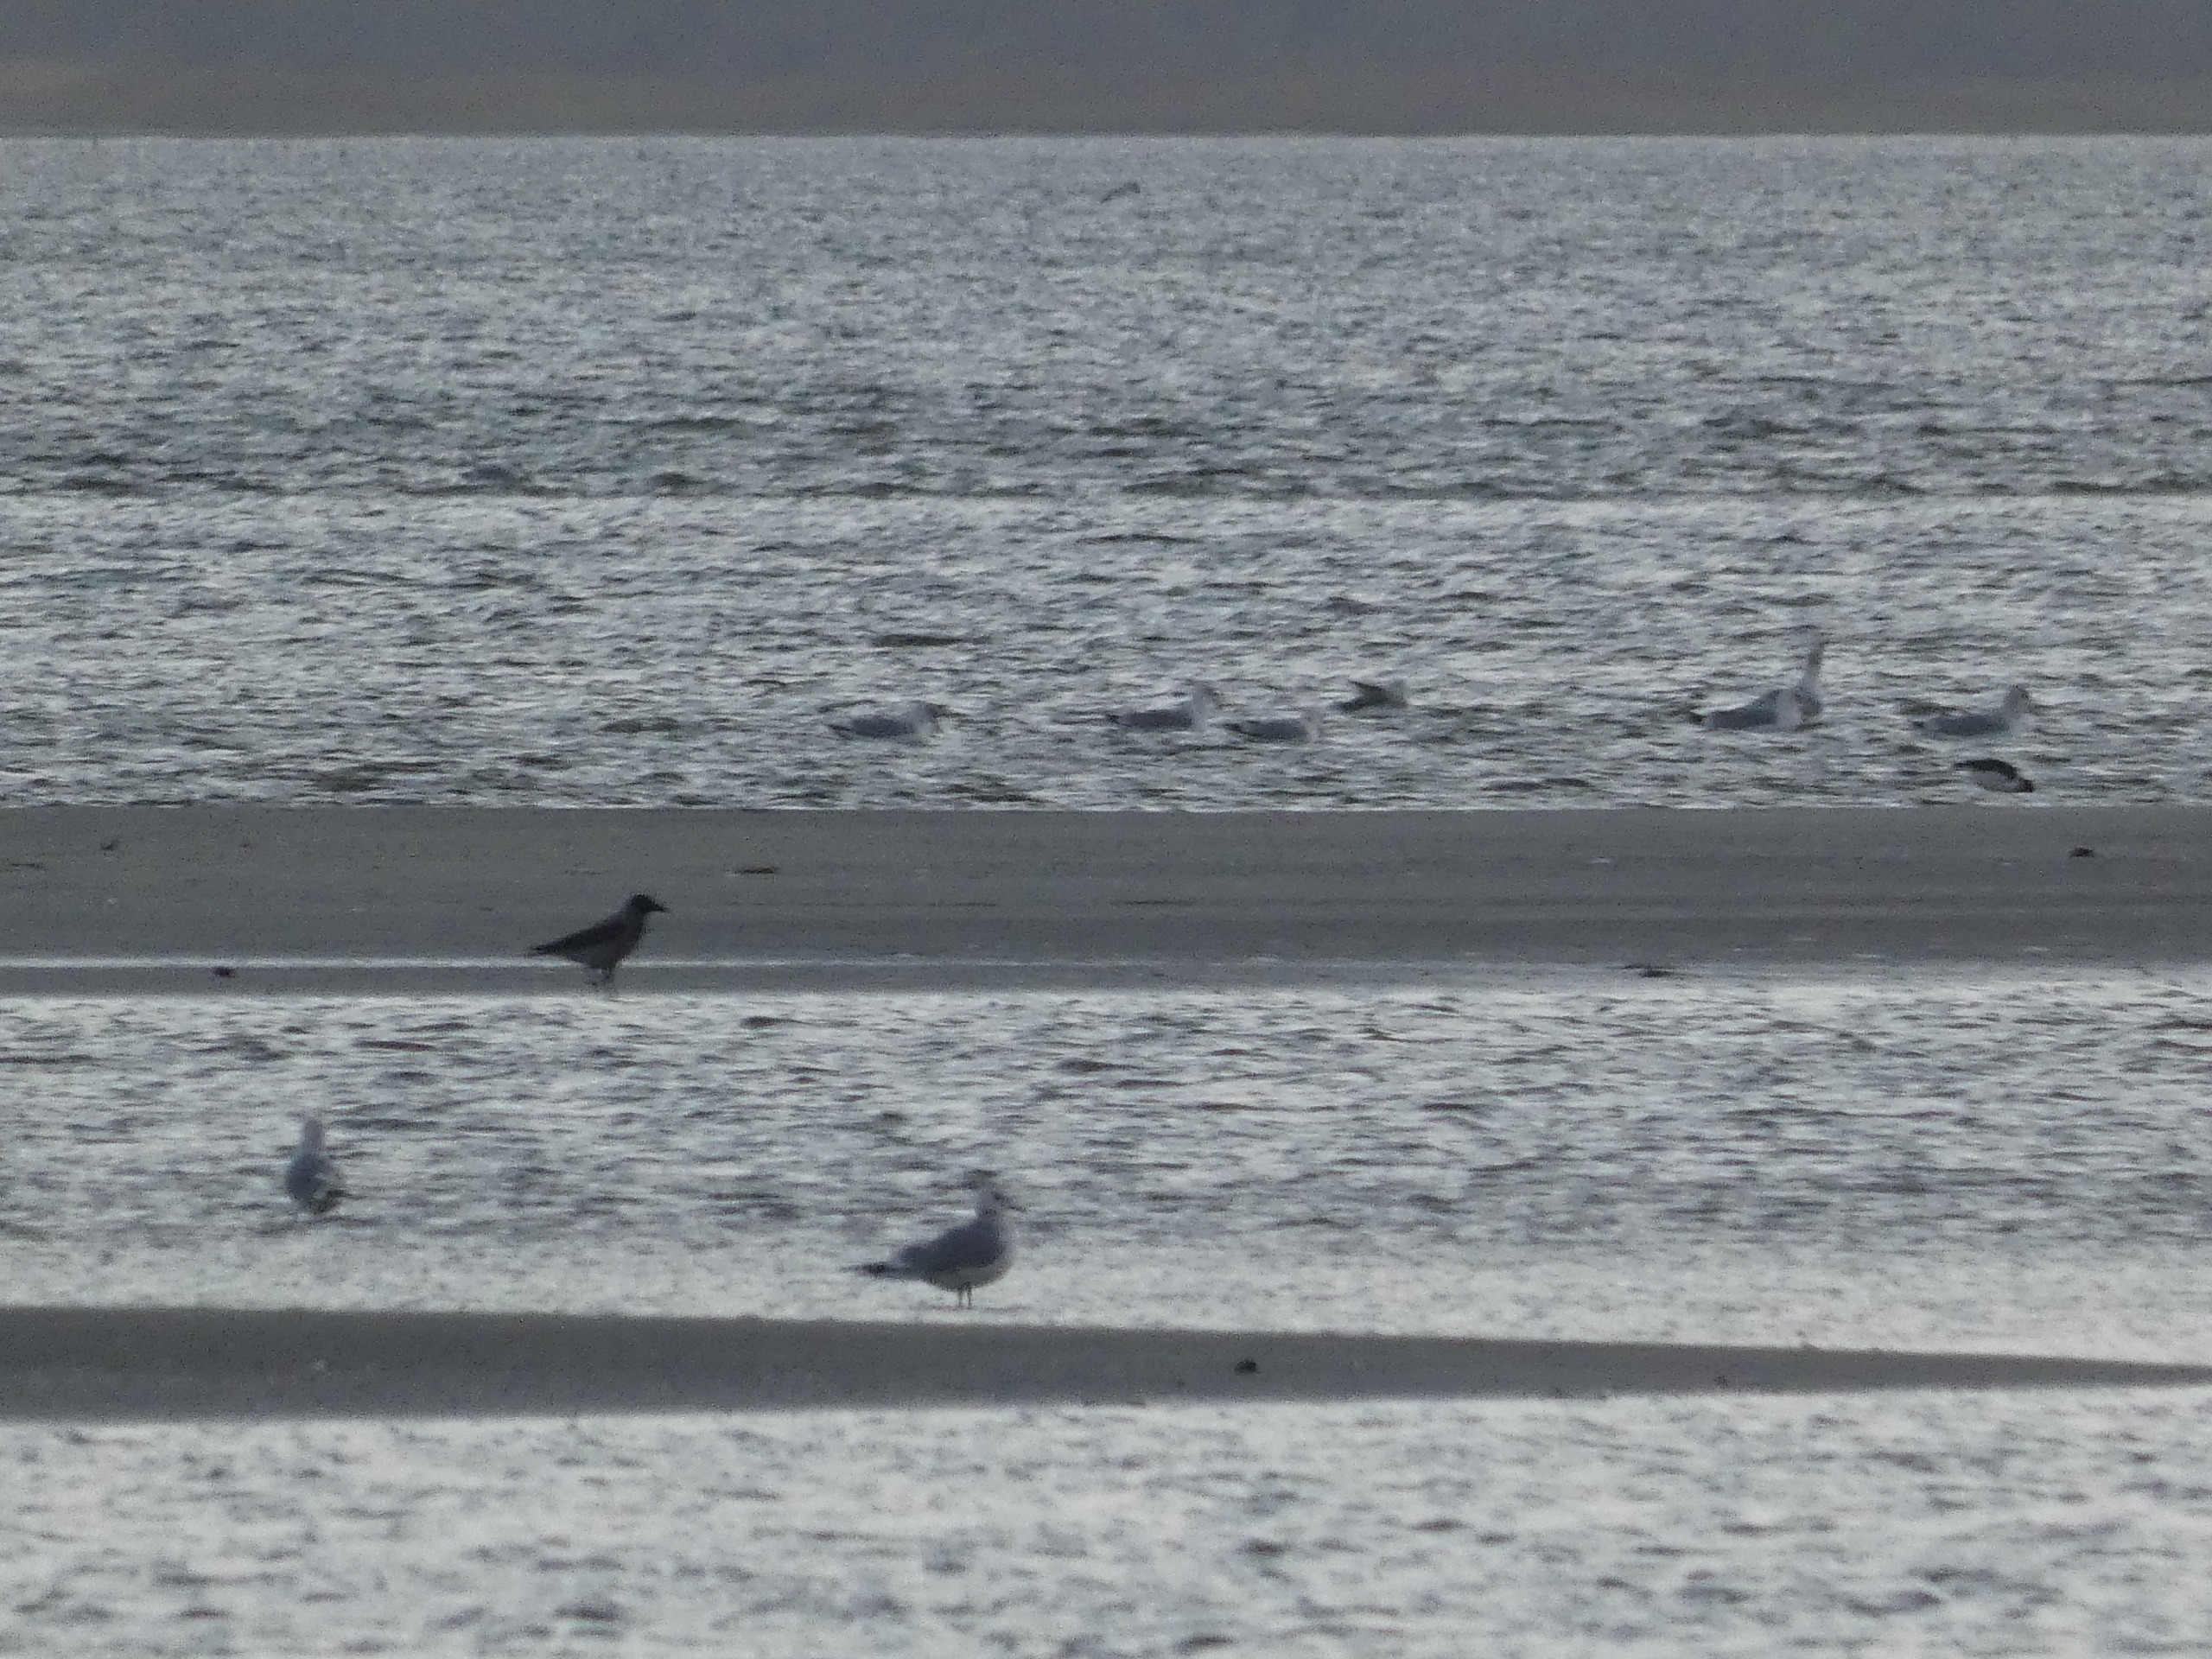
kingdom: Animalia
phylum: Chordata
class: Aves
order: Passeriformes
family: Corvidae
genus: Corvus
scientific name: Corvus cornix
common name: Gråkrage
